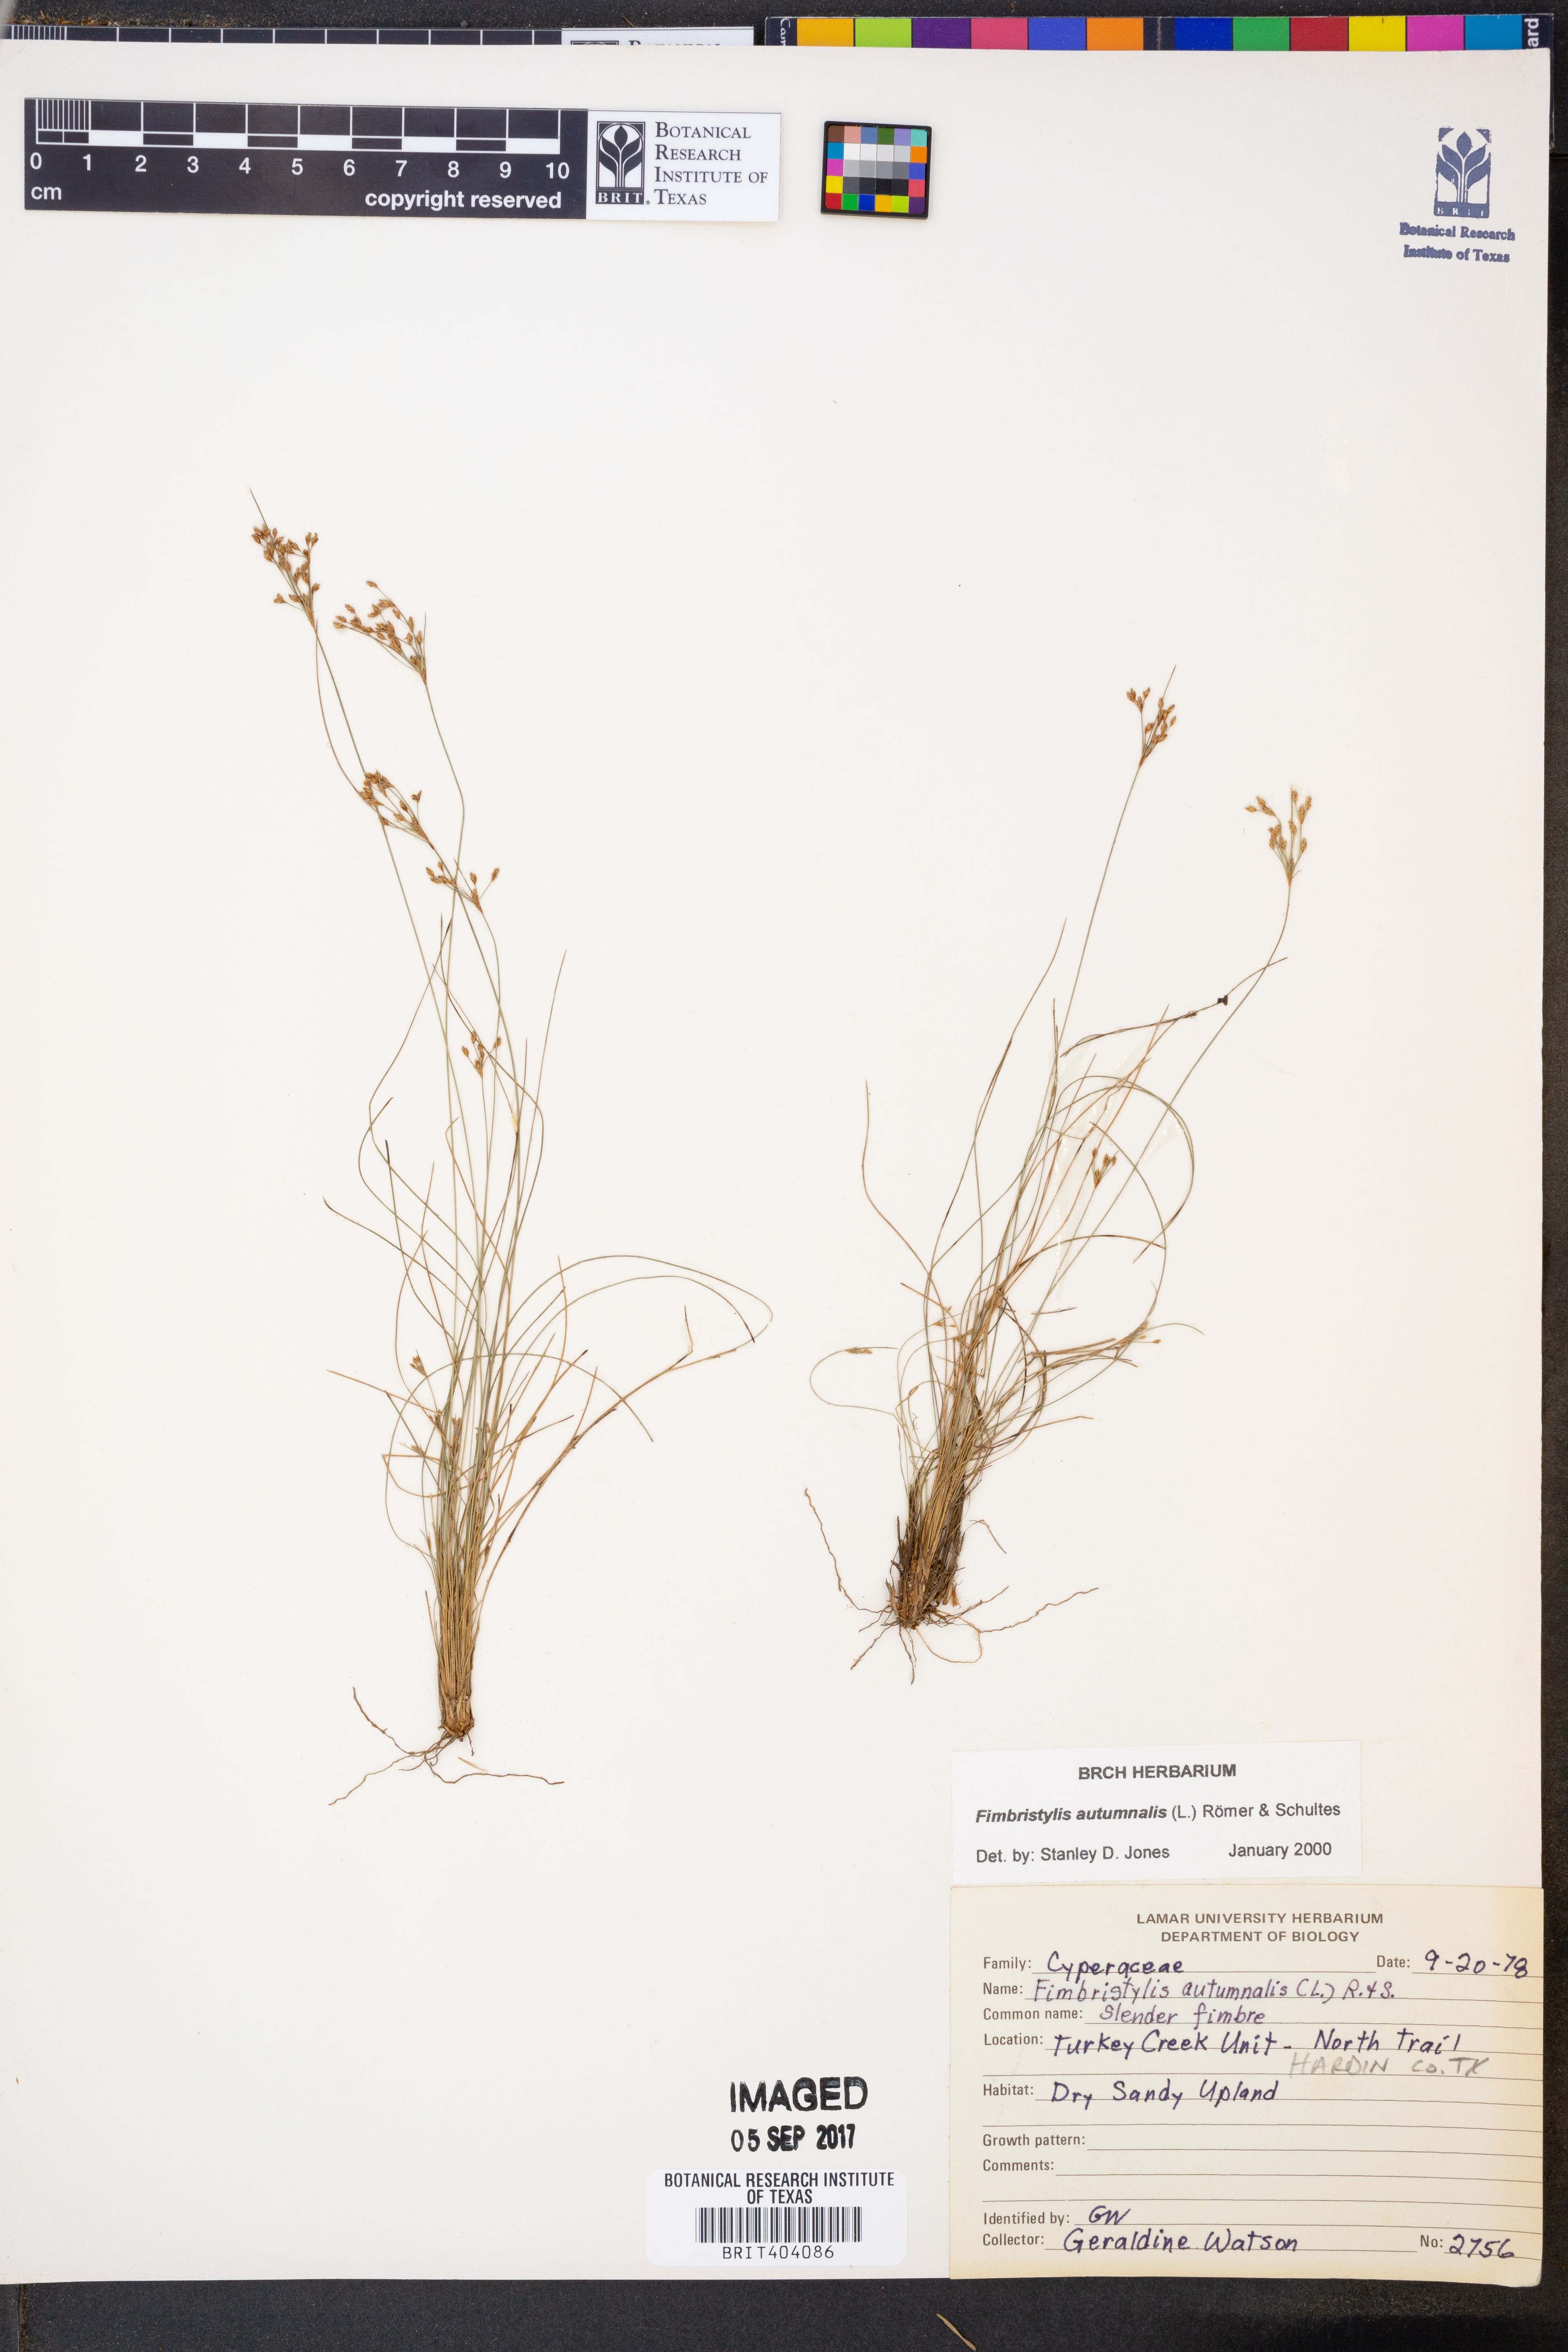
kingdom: Plantae
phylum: Tracheophyta
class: Liliopsida
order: Poales
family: Cyperaceae
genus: Fimbristylis
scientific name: Fimbristylis autumnalis
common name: Slender fimbristylis
